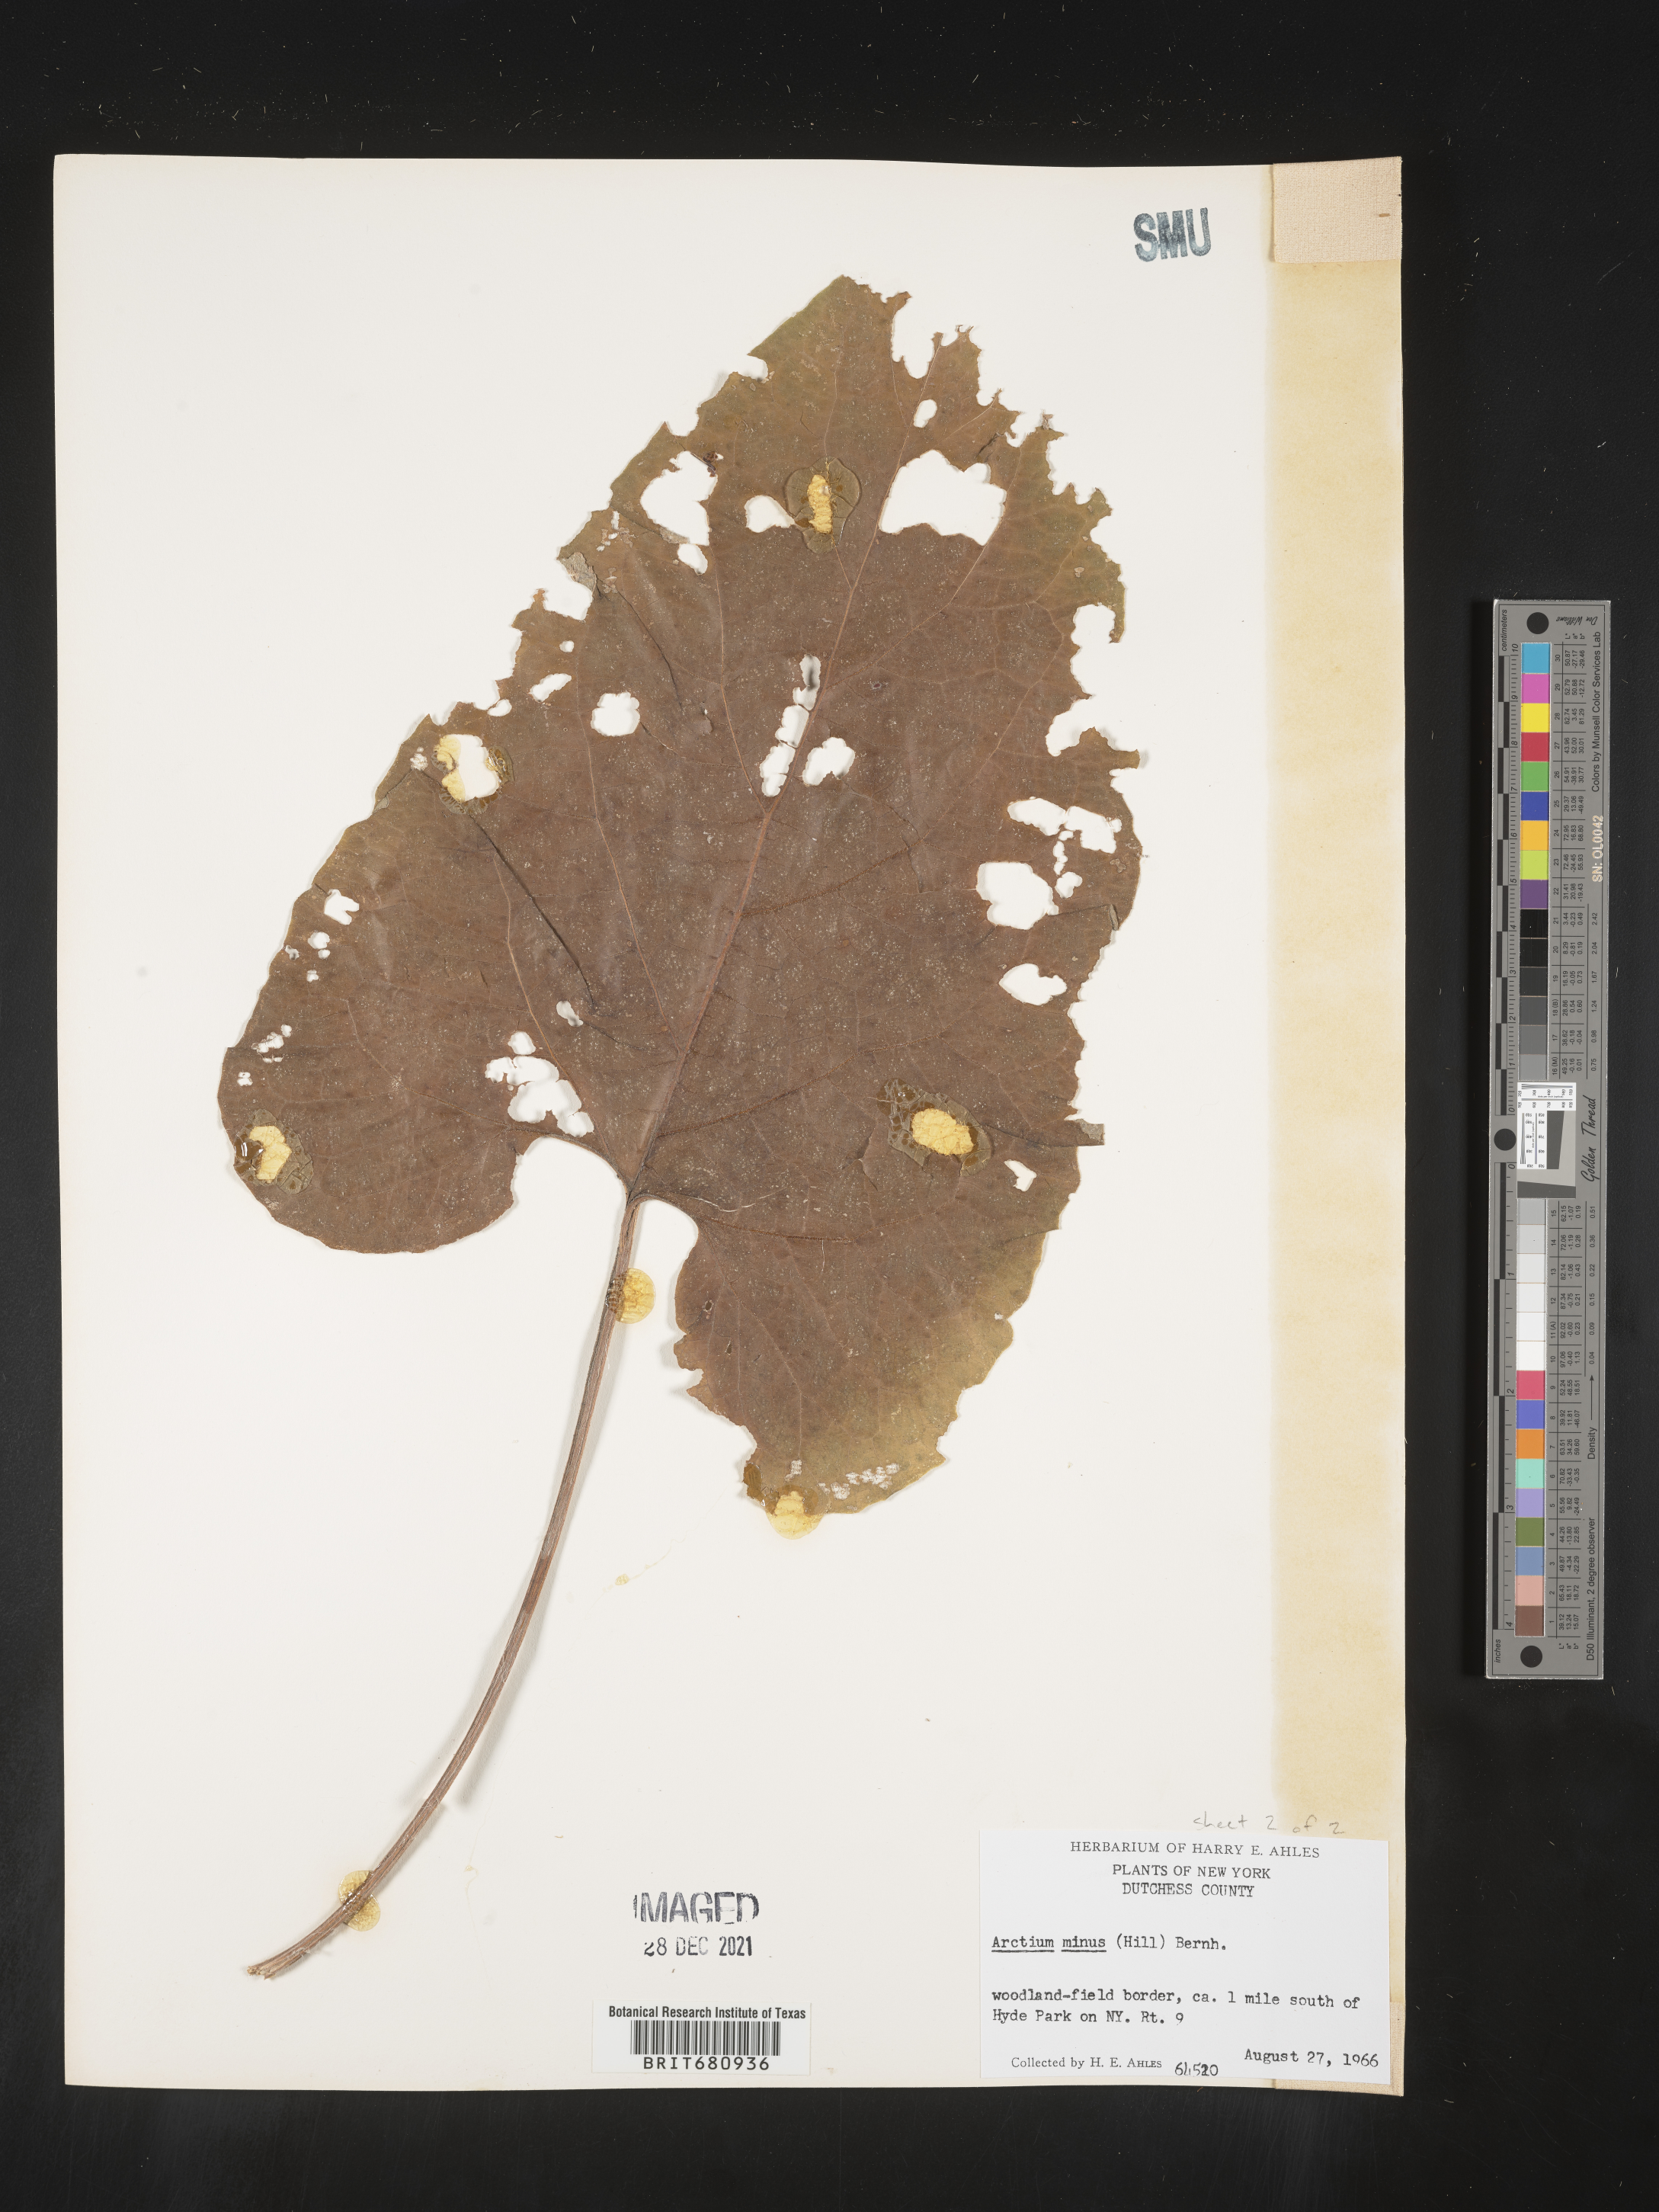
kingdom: Plantae
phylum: Tracheophyta
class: Magnoliopsida
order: Asterales
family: Asteraceae
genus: Arctium
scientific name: Arctium minus
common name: Lesser burdock
